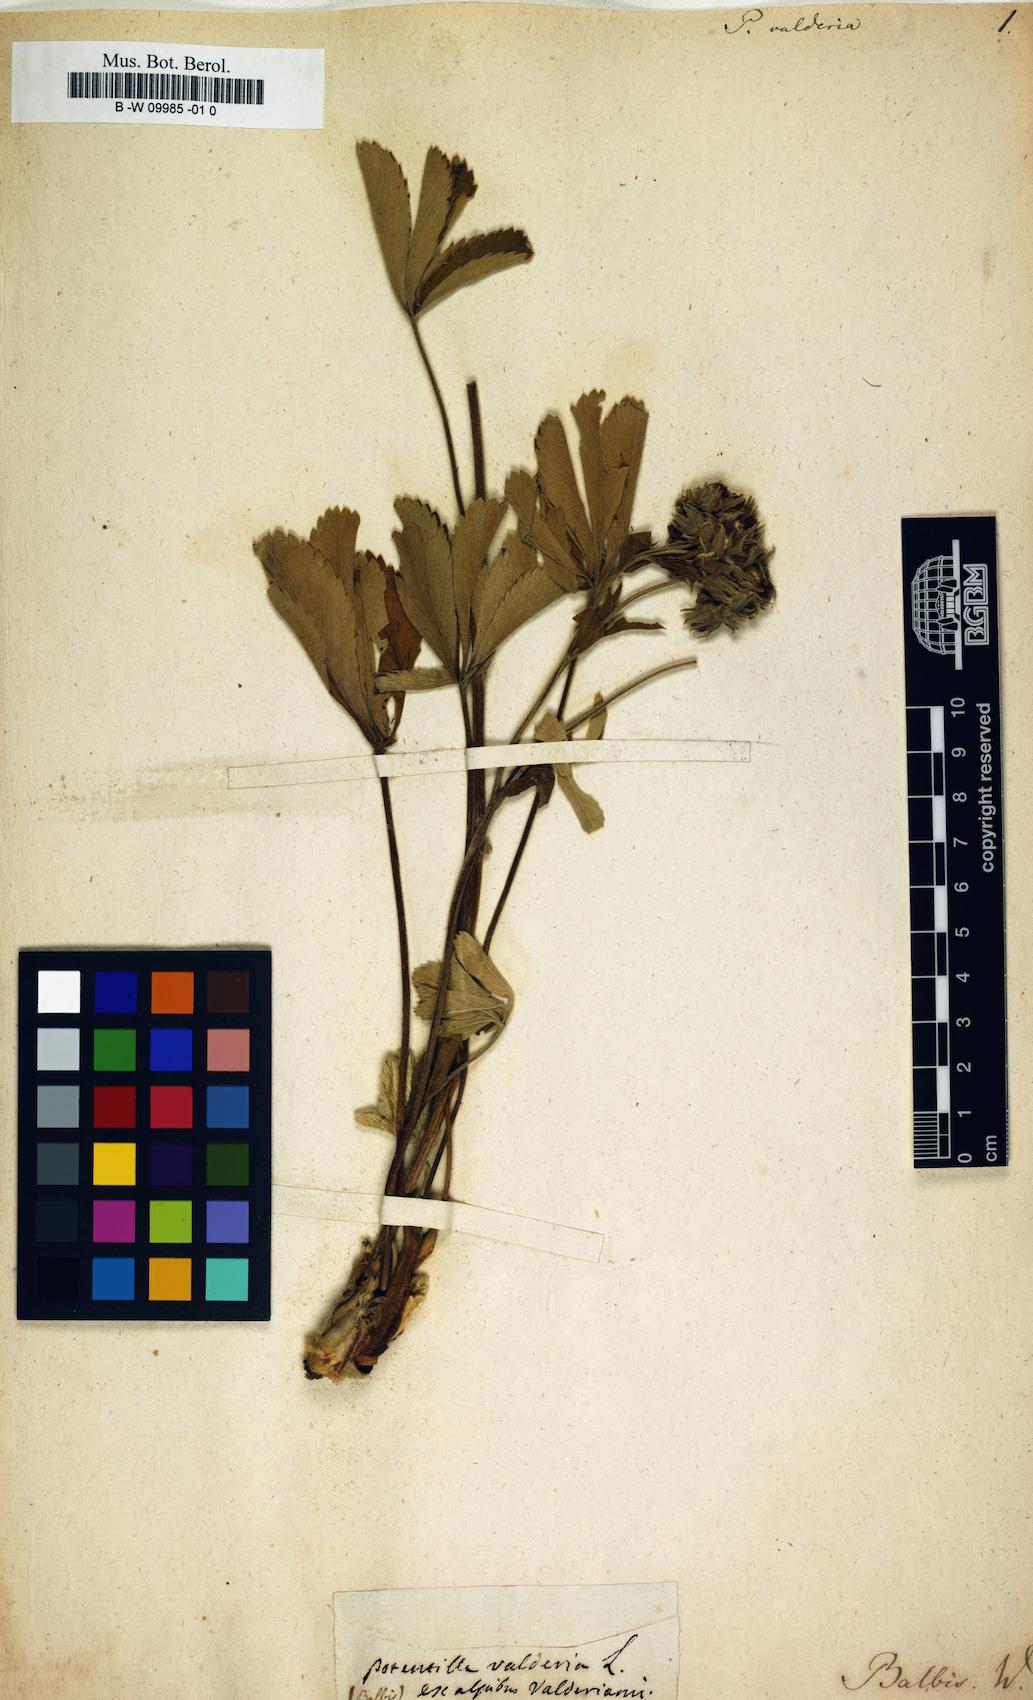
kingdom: Plantae
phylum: Tracheophyta
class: Magnoliopsida
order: Rosales
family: Rosaceae
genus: Potentilla
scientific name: Potentilla valderia
